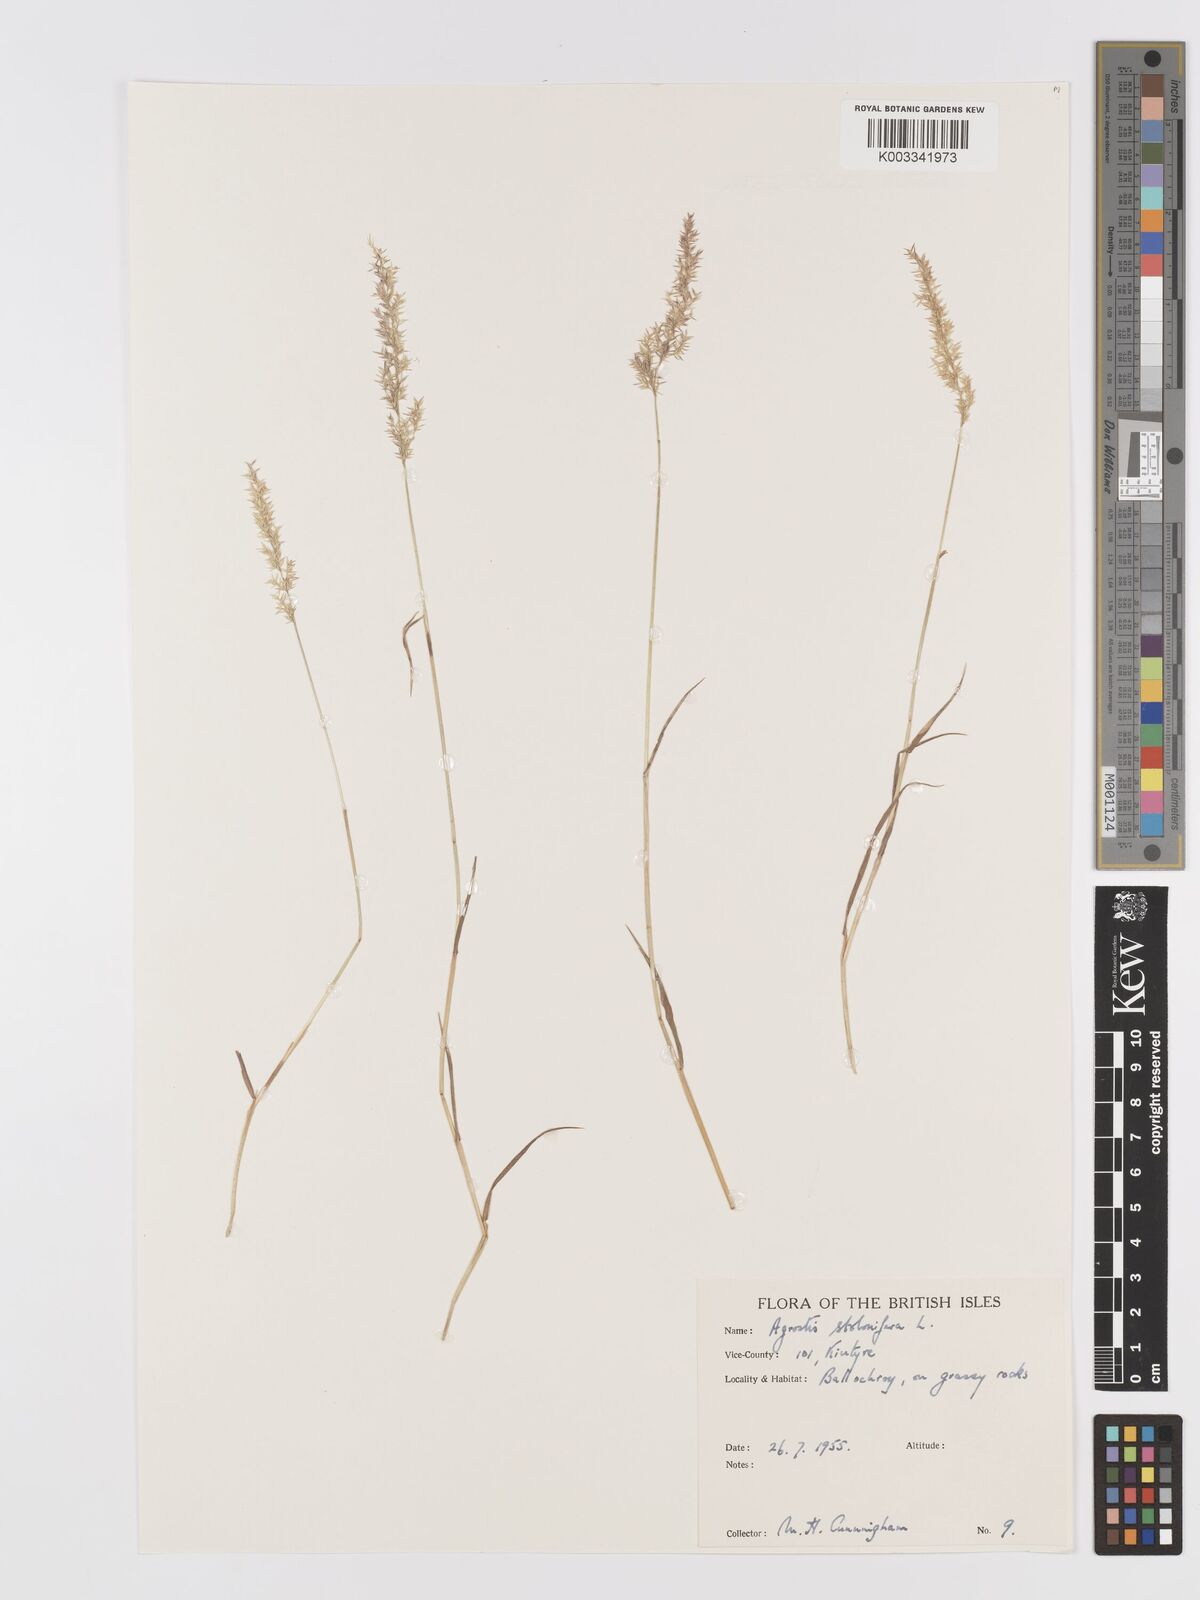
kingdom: Plantae
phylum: Tracheophyta
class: Liliopsida
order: Poales
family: Poaceae
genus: Agrostis
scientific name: Agrostis stolonifera
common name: Creeping bentgrass
